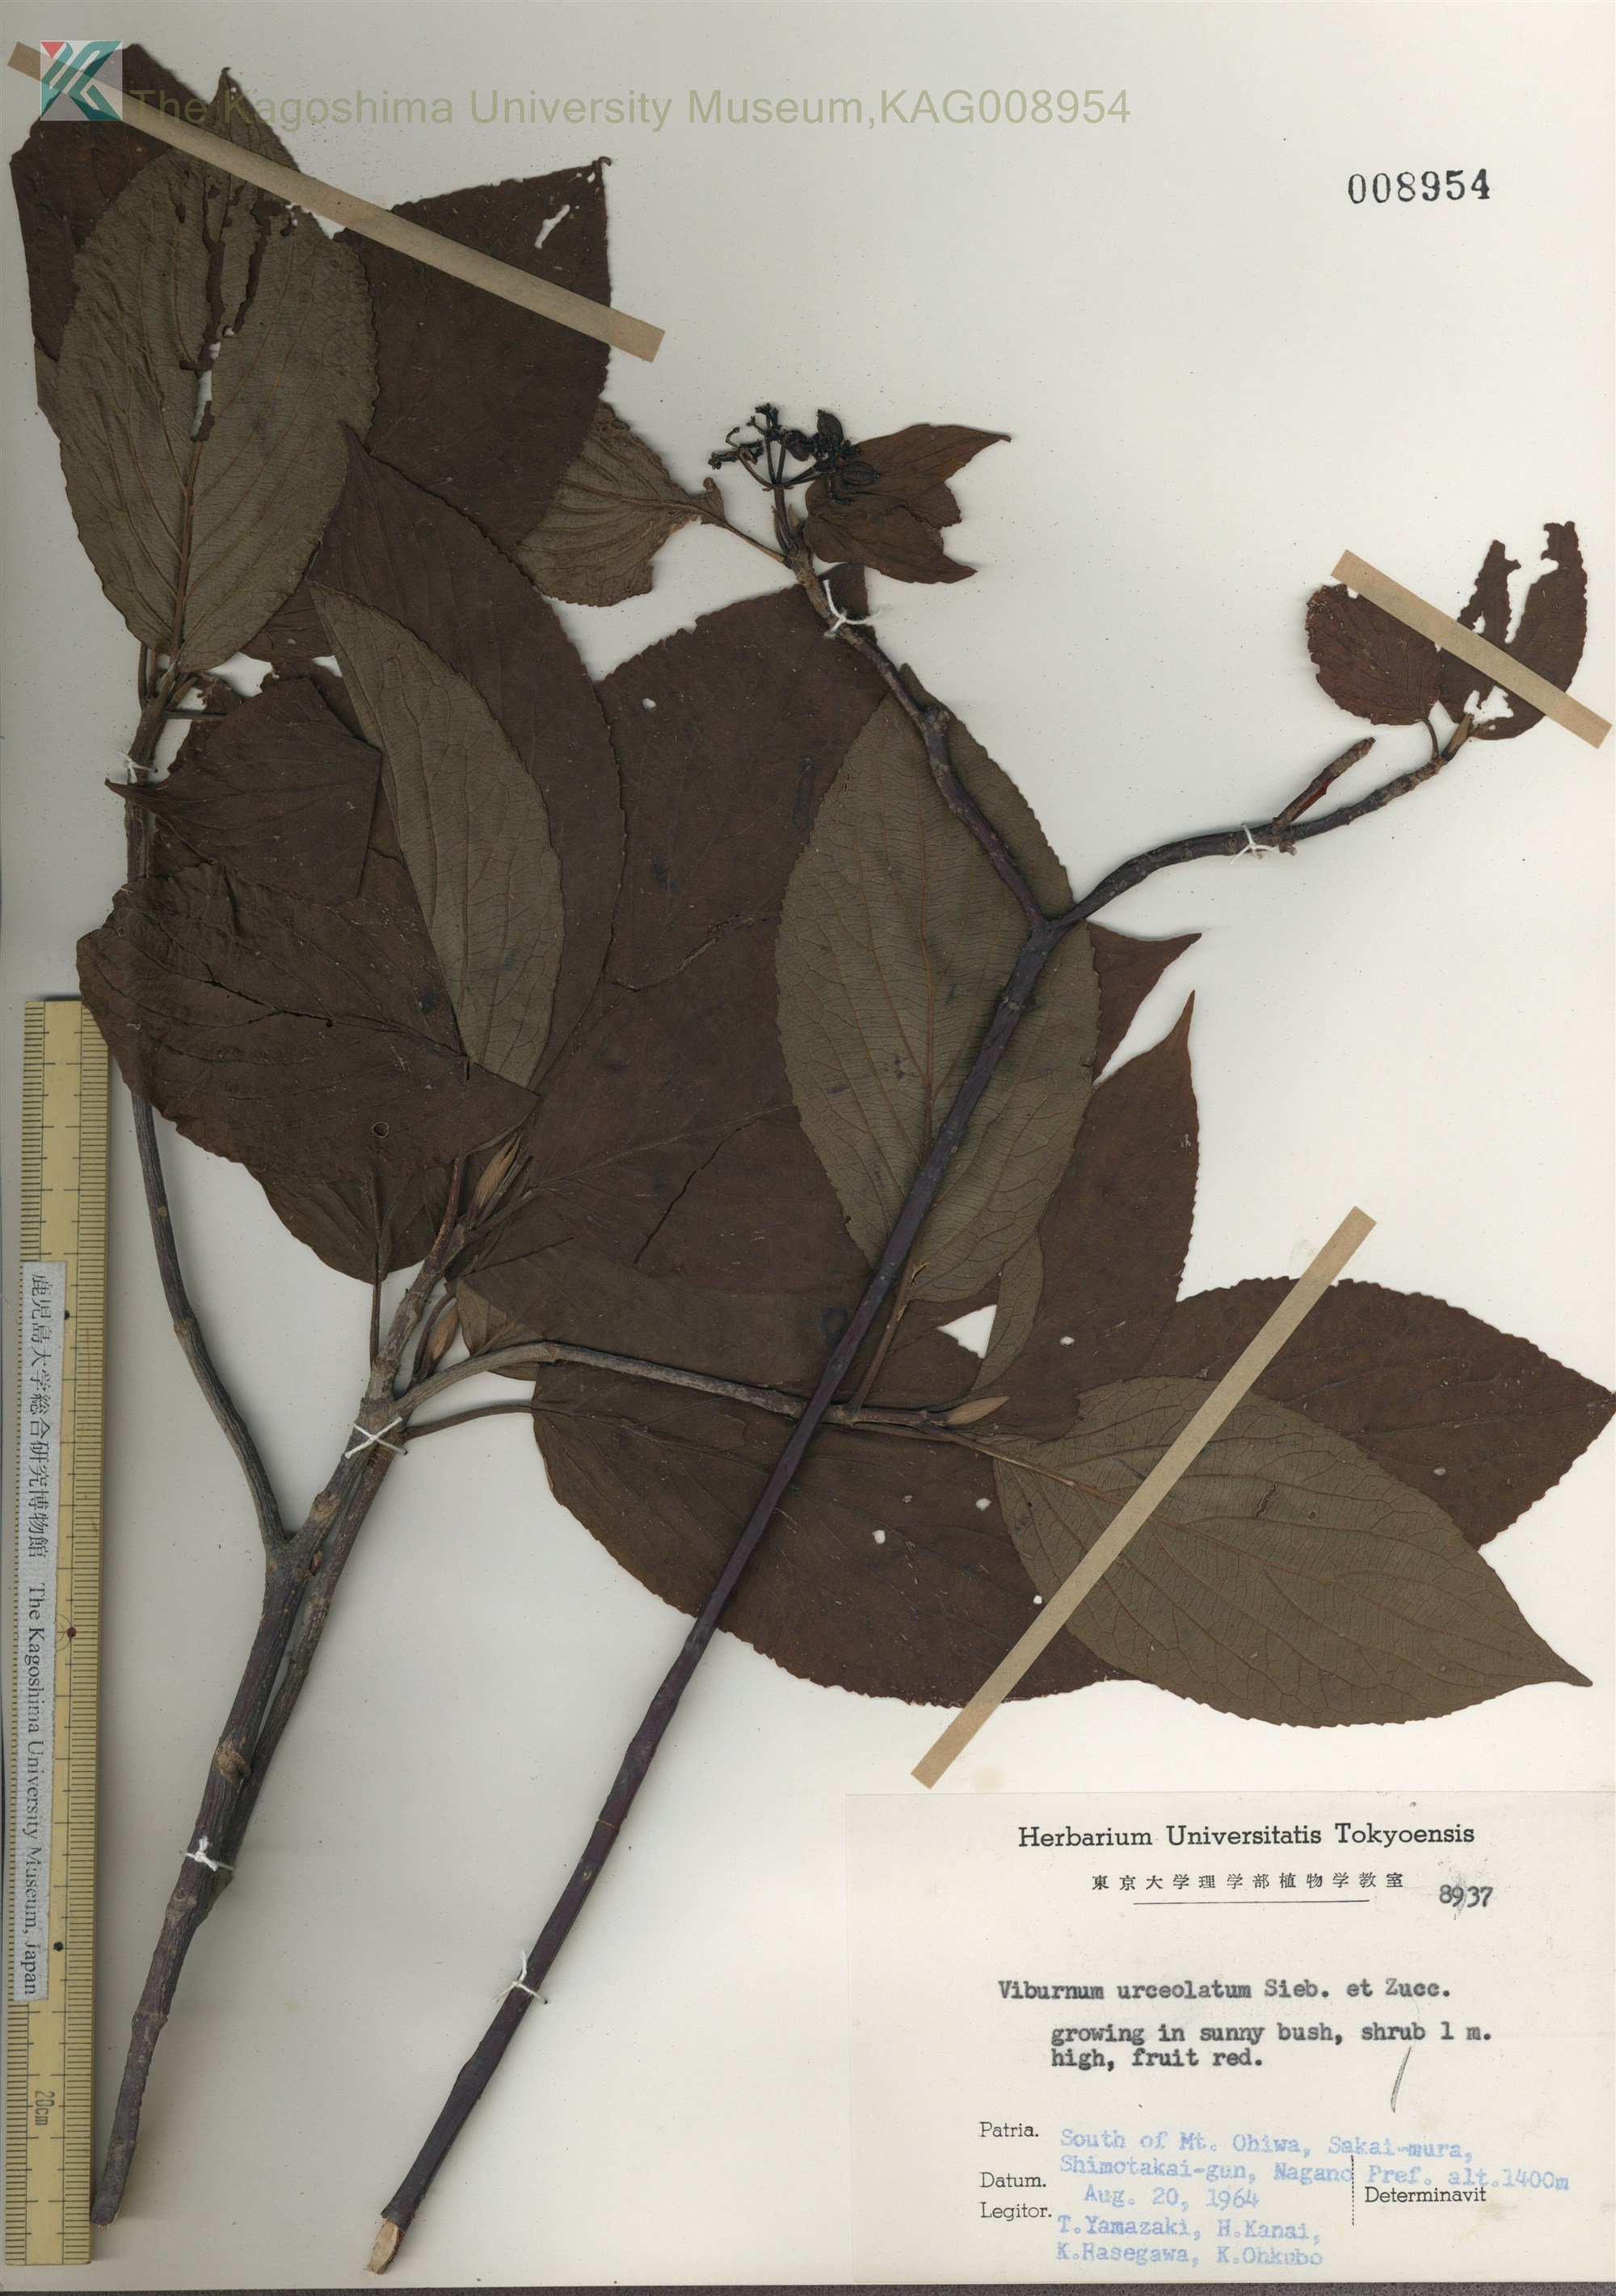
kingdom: Plantae
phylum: Tracheophyta
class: Magnoliopsida
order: Dipsacales
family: Viburnaceae
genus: Viburnum
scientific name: Viburnum urceolatum
